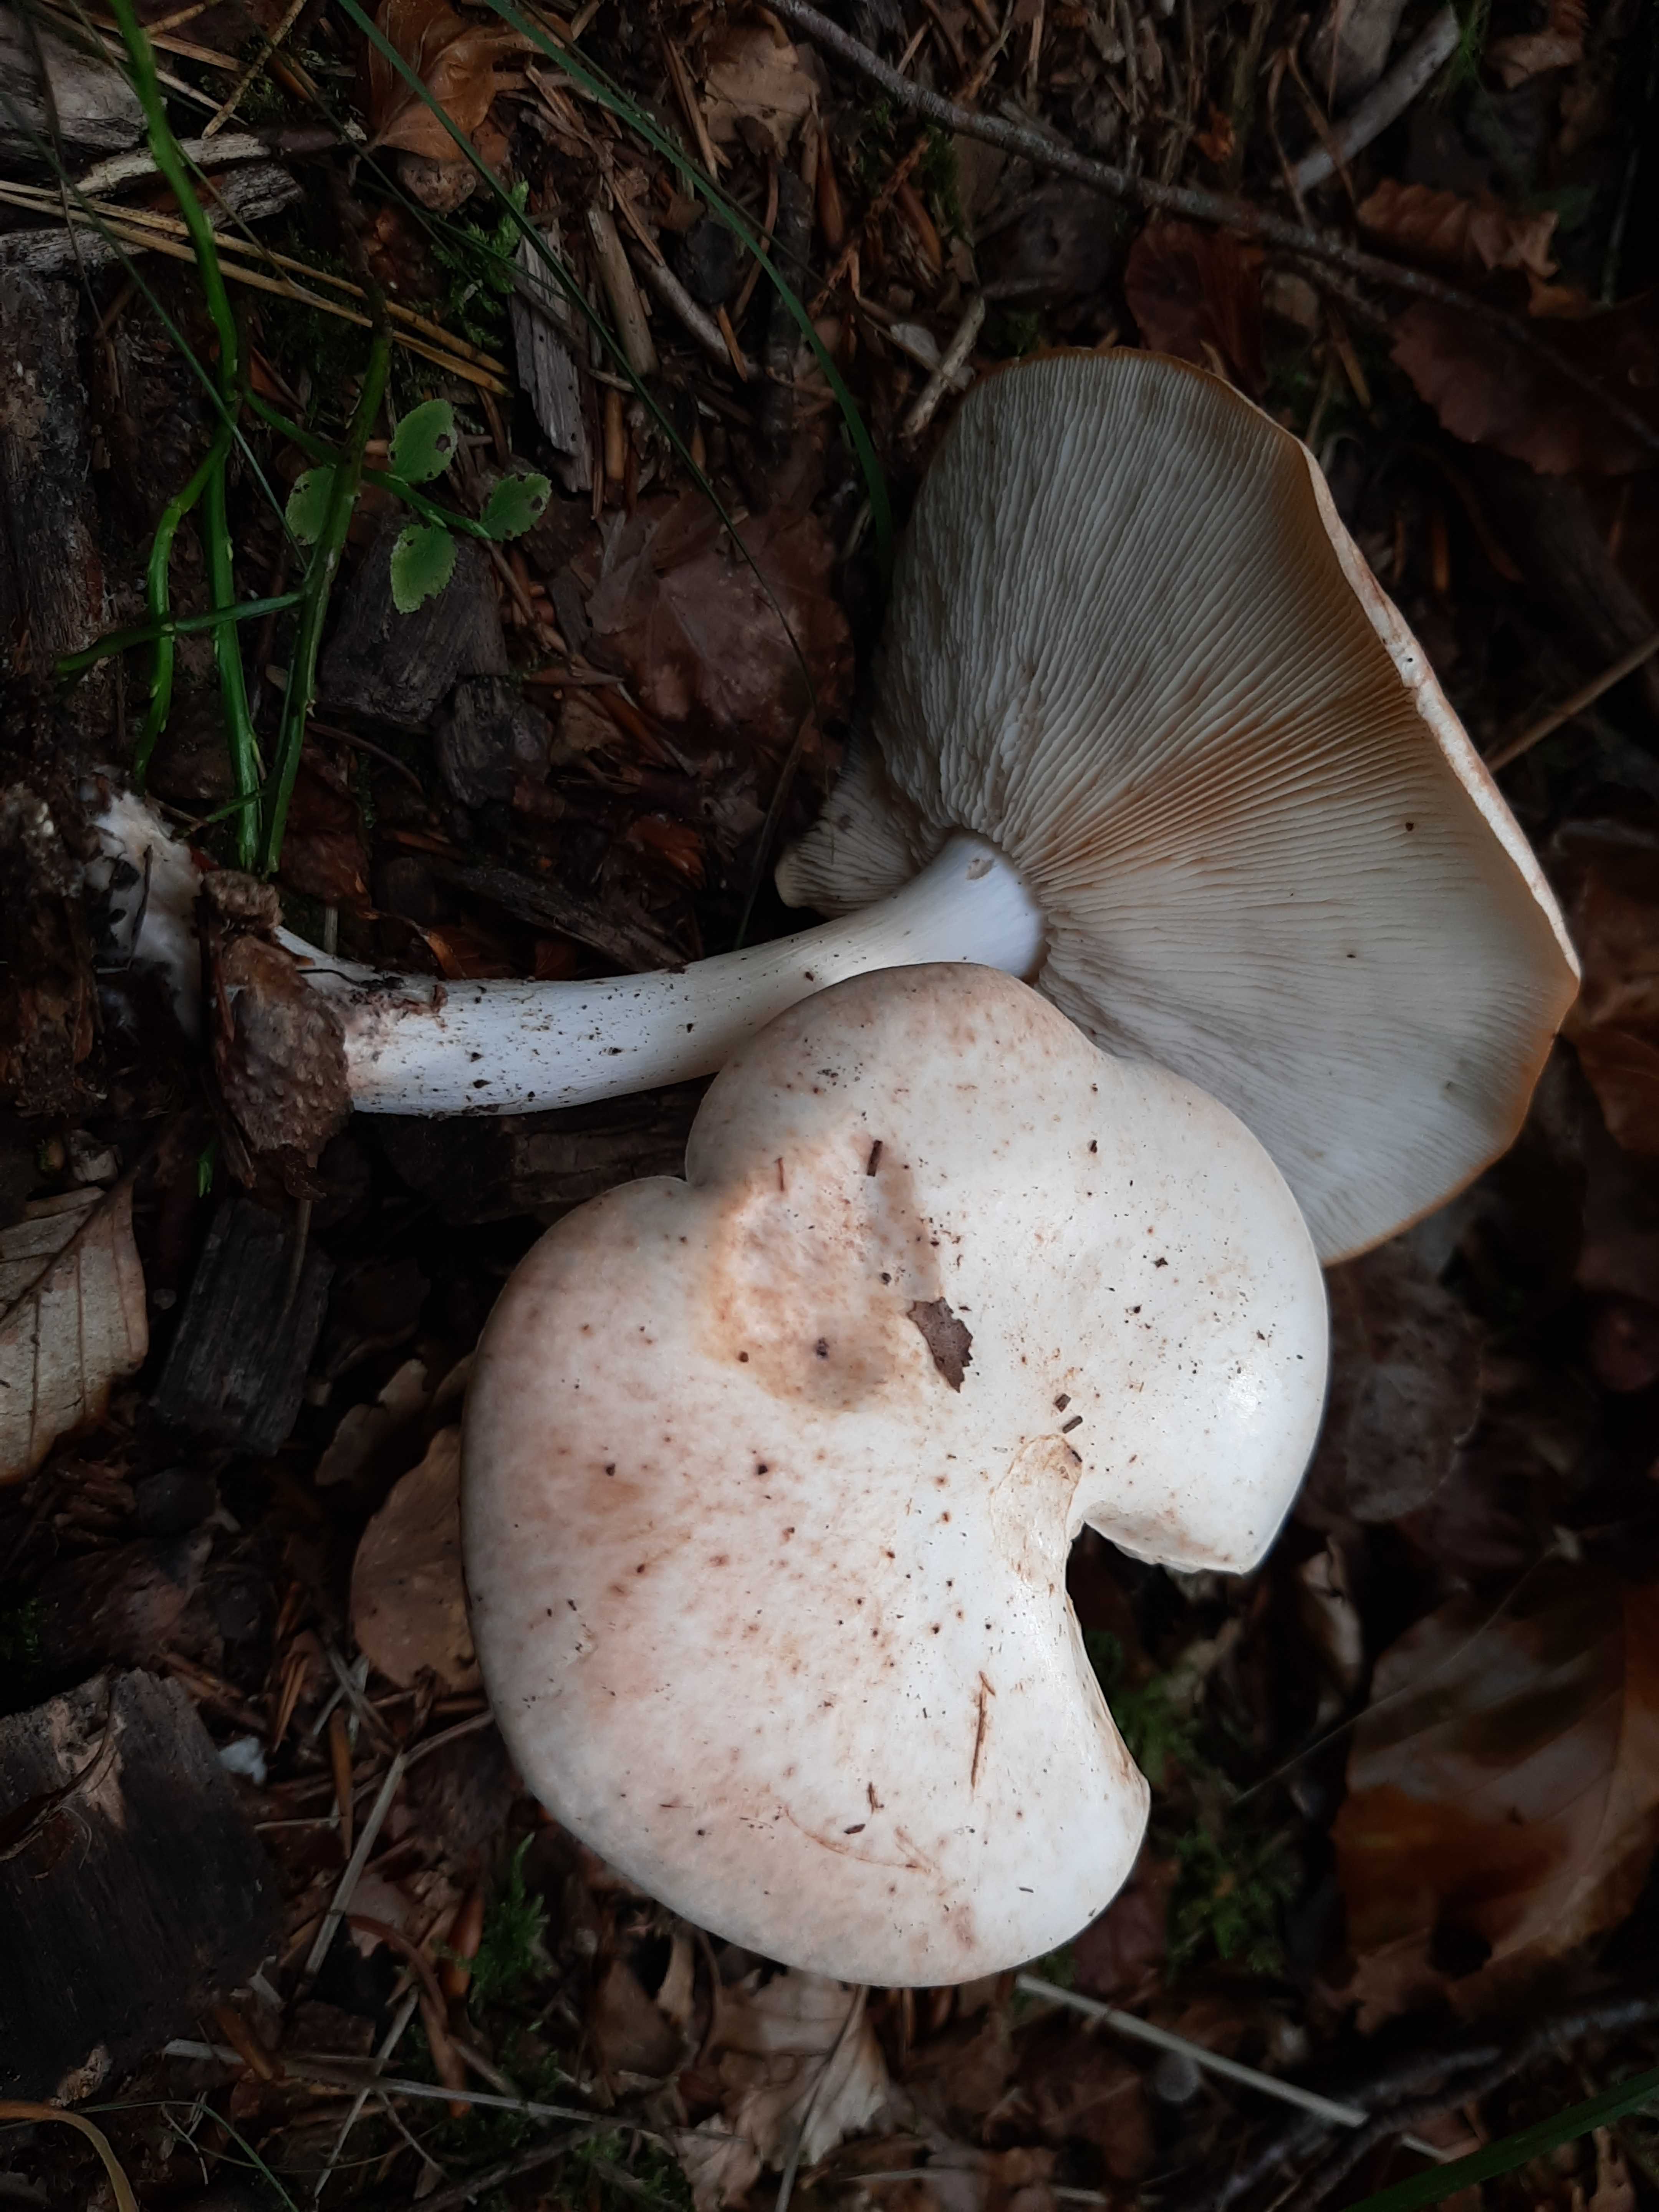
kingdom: Fungi
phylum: Basidiomycota
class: Agaricomycetes
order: Agaricales
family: Omphalotaceae
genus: Rhodocollybia
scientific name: Rhodocollybia maculata
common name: plettet fladhat
